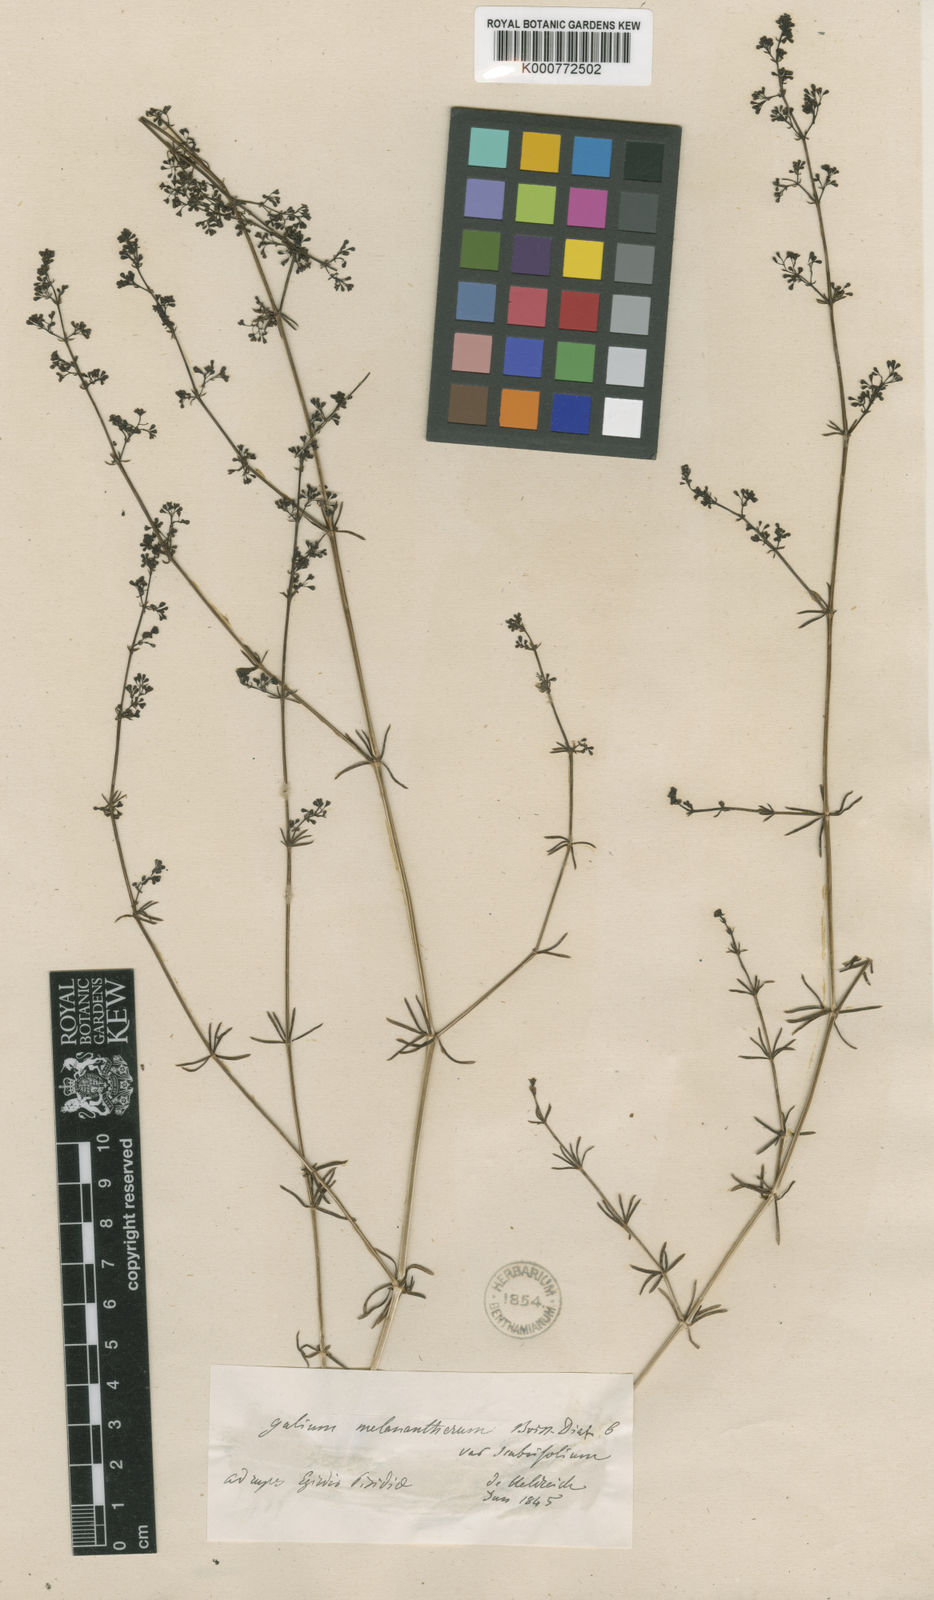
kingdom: Plantae
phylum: Tracheophyta
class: Magnoliopsida
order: Gentianales
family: Rubiaceae
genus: Galium
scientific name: Galium incurvum
